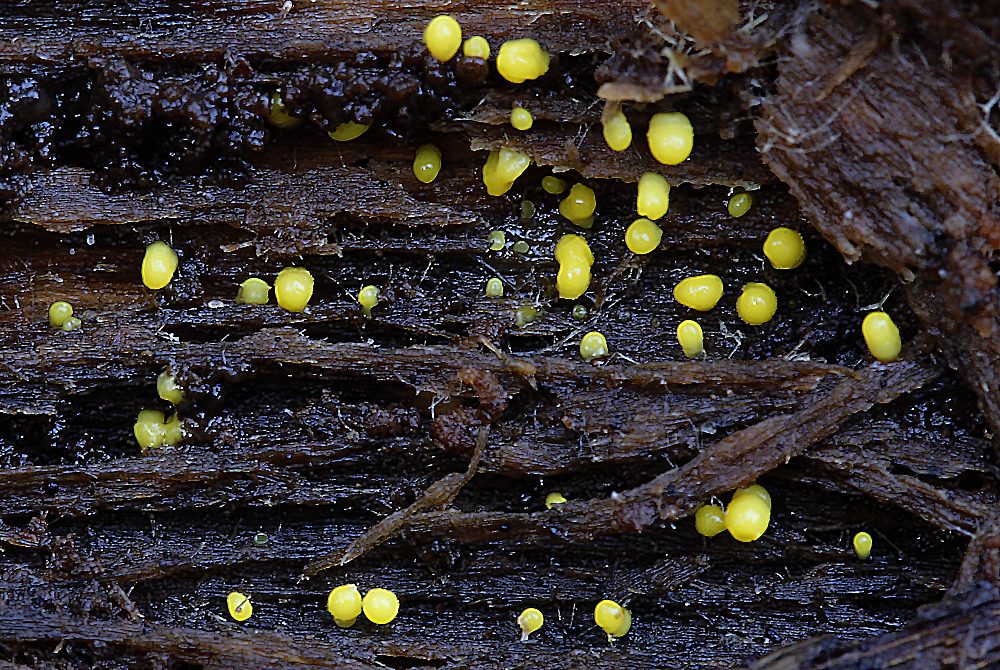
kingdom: Fungi
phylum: Ascomycota
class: Leotiomycetes
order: Helotiales
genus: Lemalis
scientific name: Lemalis aurea
